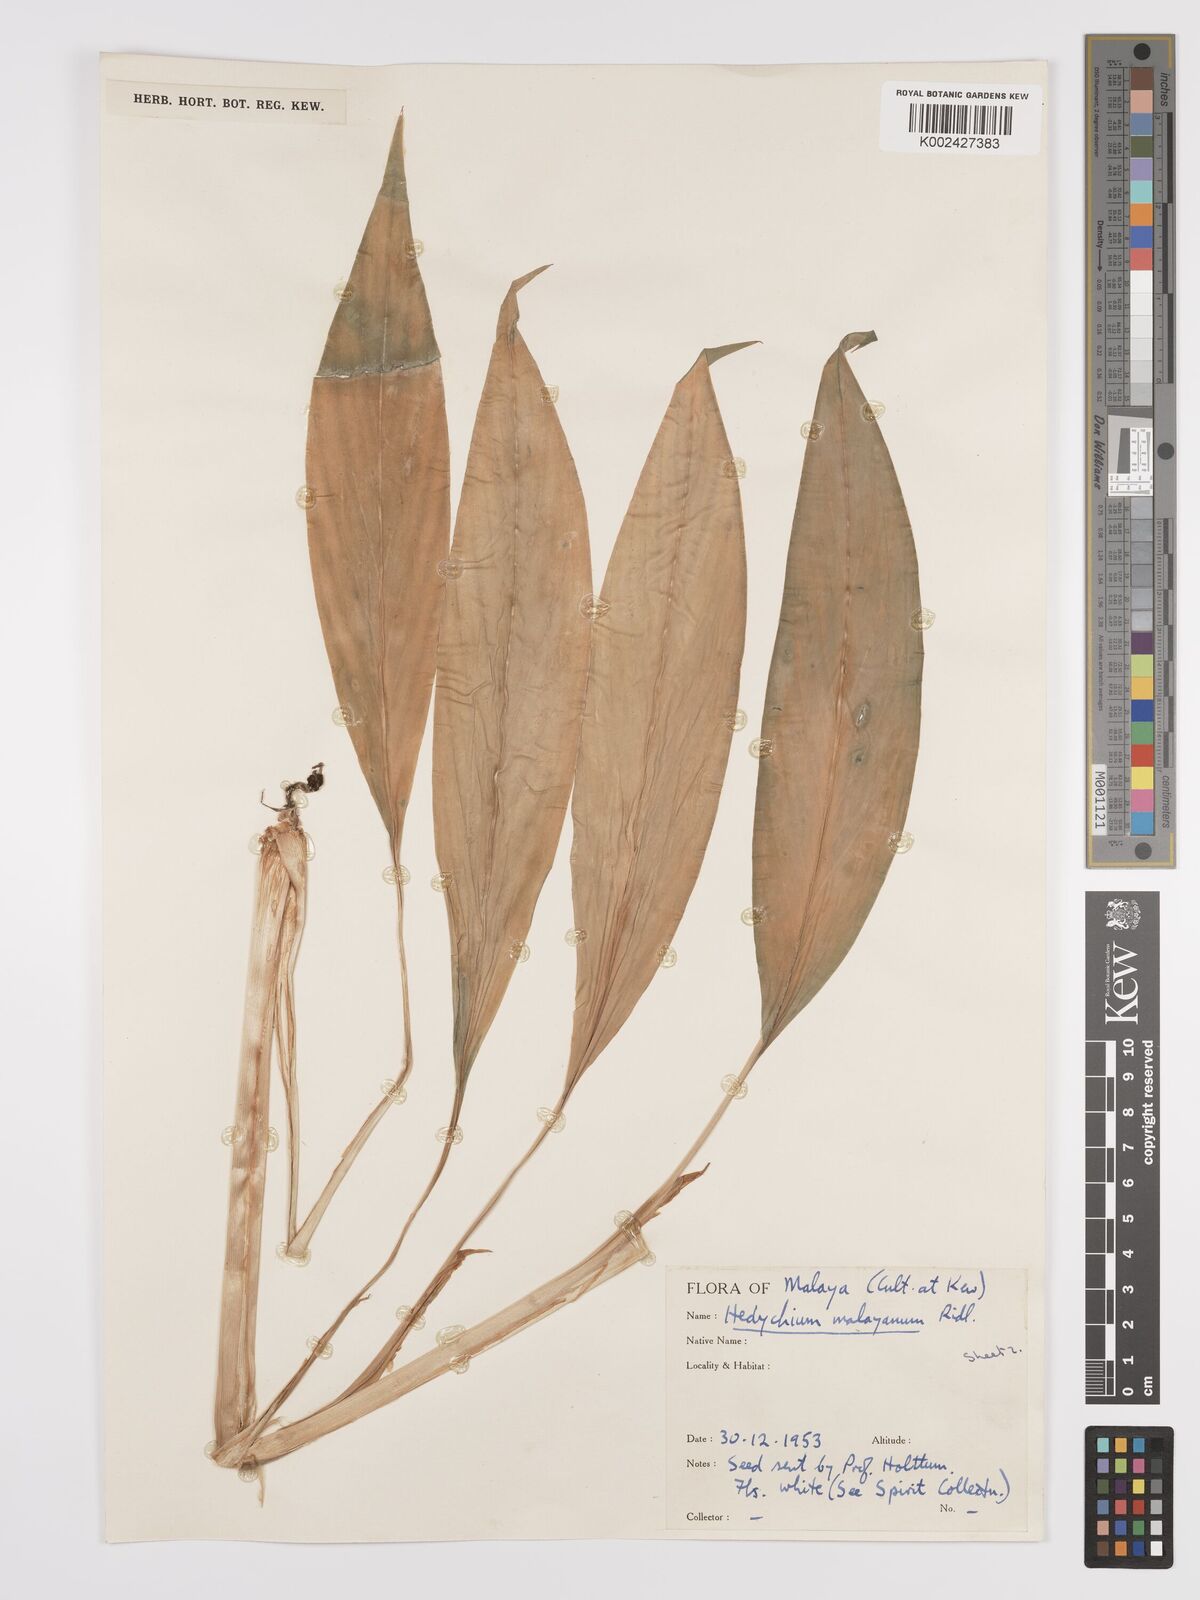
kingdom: Plantae
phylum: Tracheophyta
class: Liliopsida
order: Zingiberales
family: Zingiberaceae
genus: Hedychium
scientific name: Hedychium malayanum
